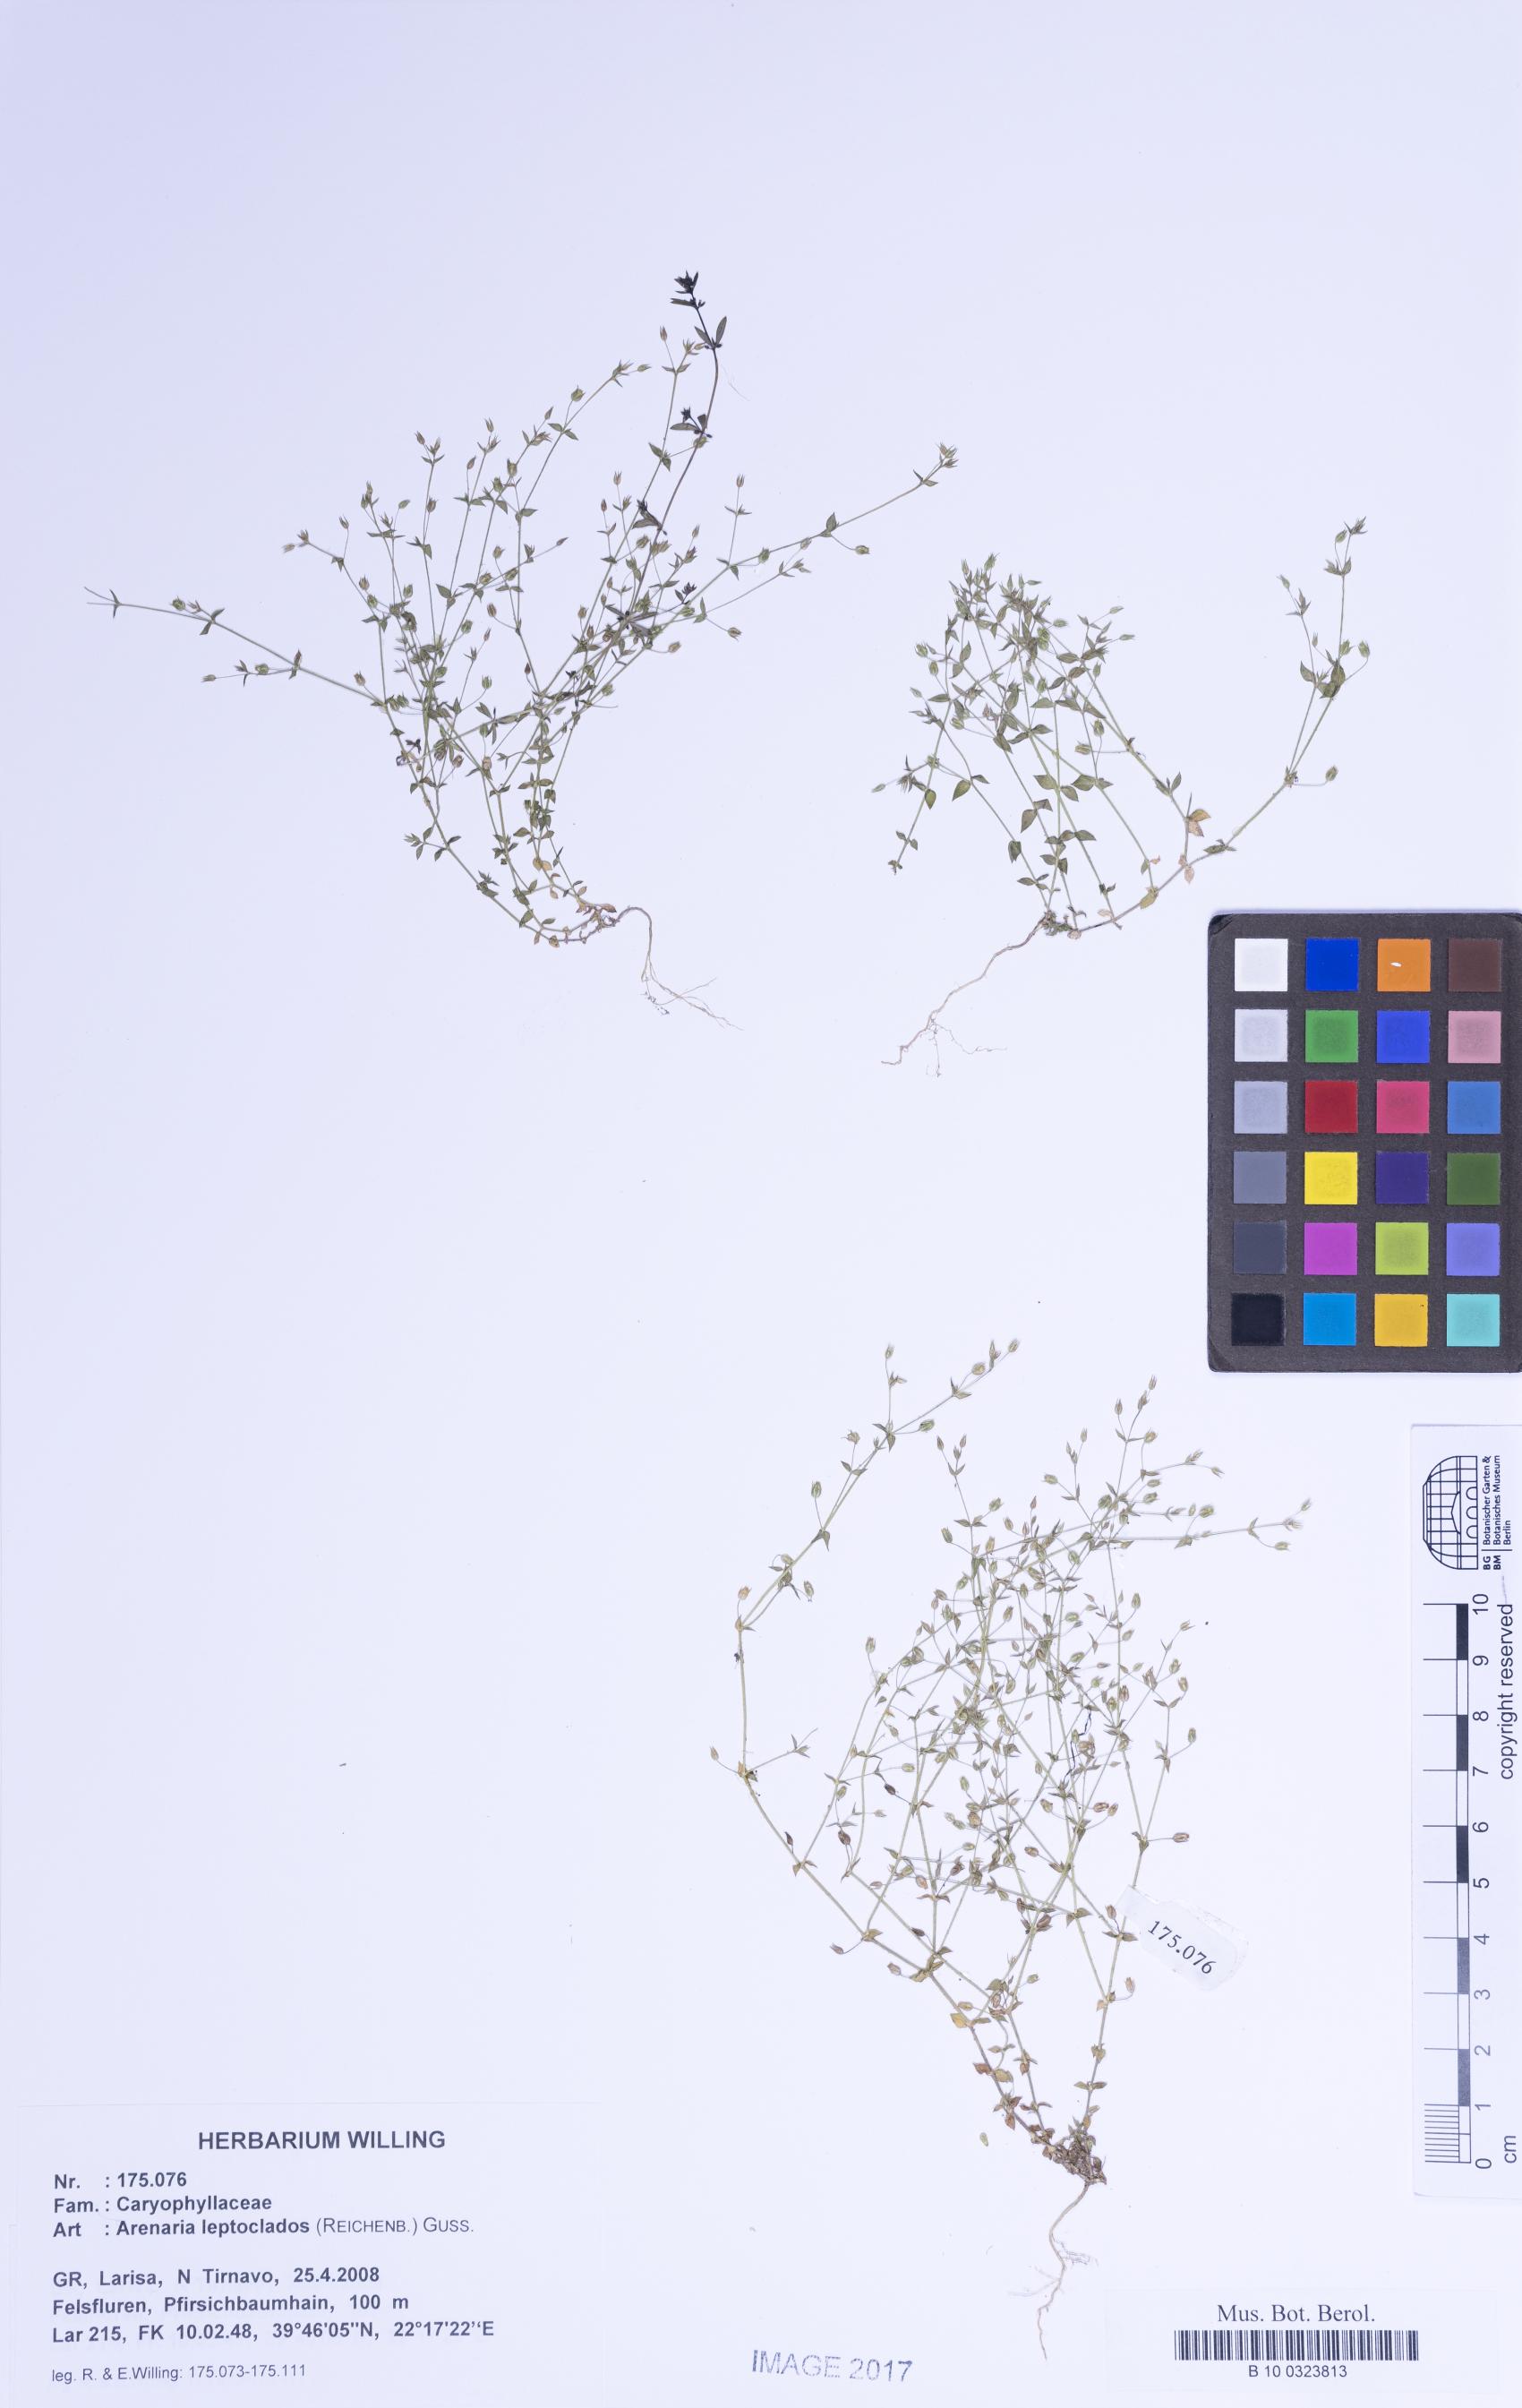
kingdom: Plantae
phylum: Tracheophyta
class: Magnoliopsida
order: Caryophyllales
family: Caryophyllaceae
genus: Arenaria
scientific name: Arenaria leptoclados
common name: Thyme-leaved sandwort
